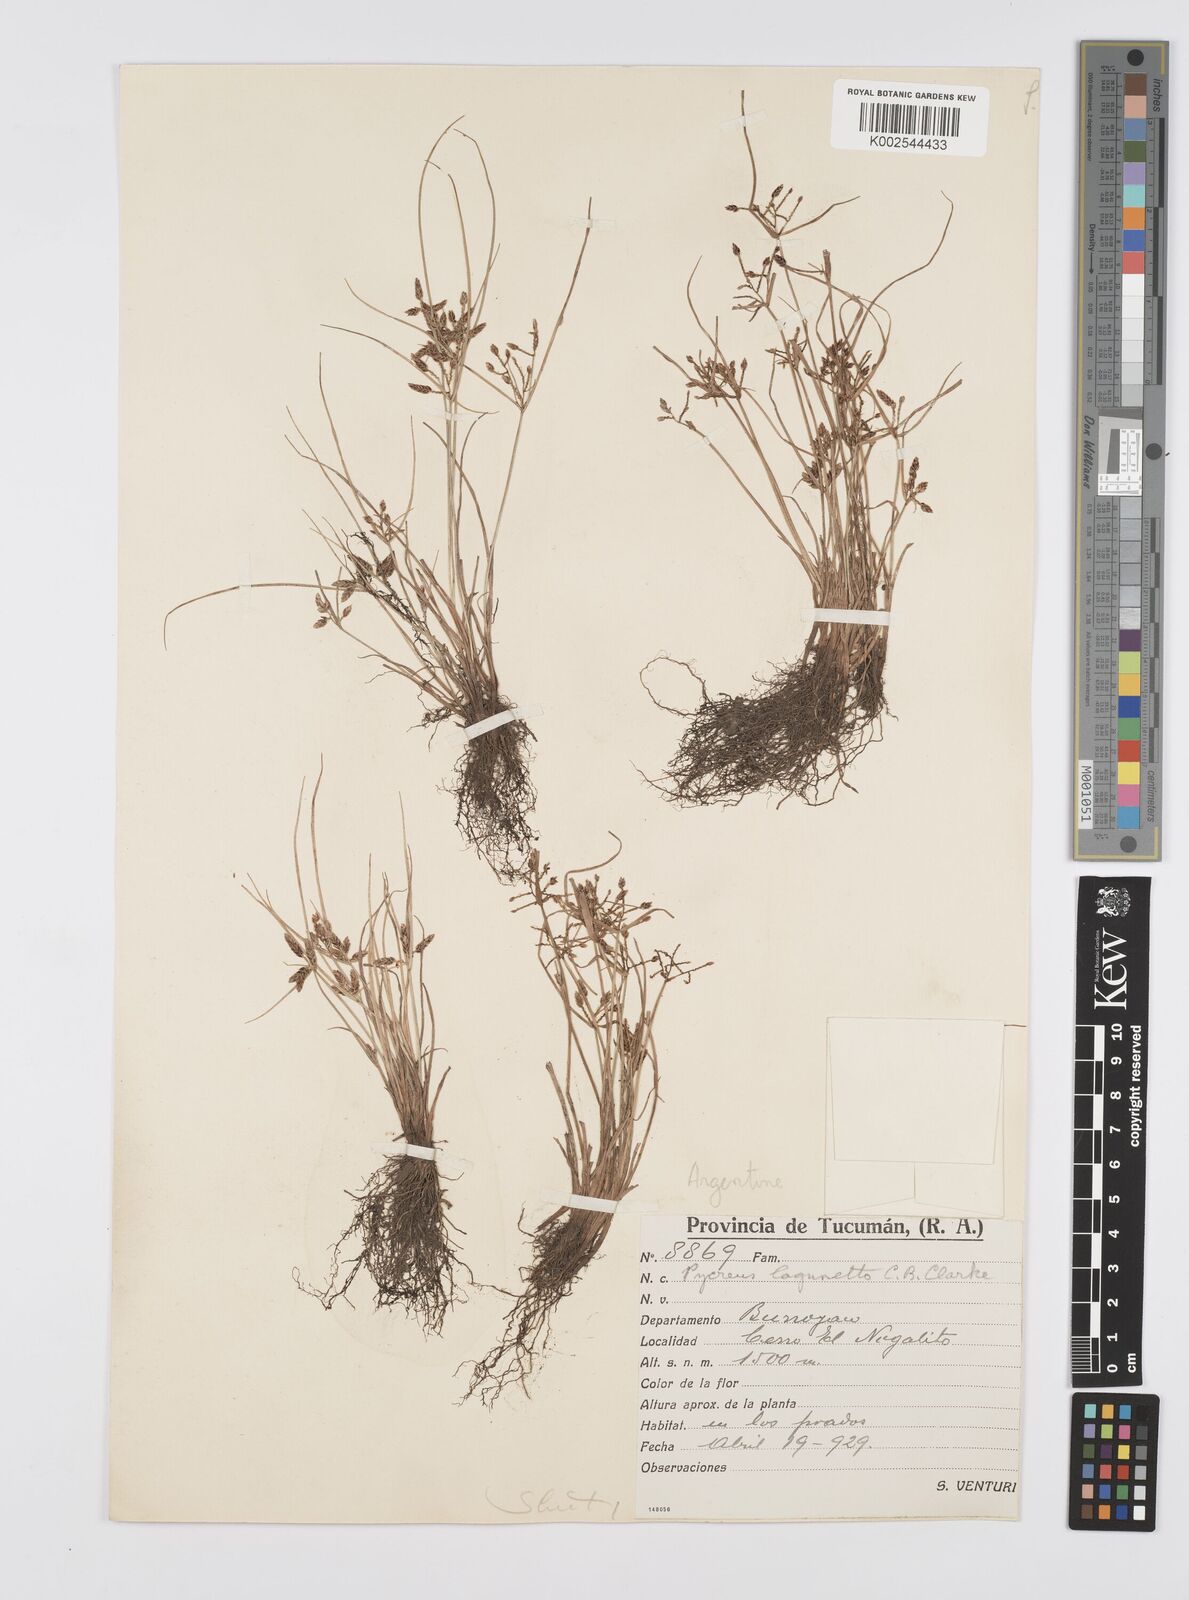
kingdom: Plantae
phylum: Tracheophyta
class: Liliopsida
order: Poales
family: Cyperaceae
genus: Cyperus
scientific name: Cyperus bipartitus
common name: Brook flatsedge
